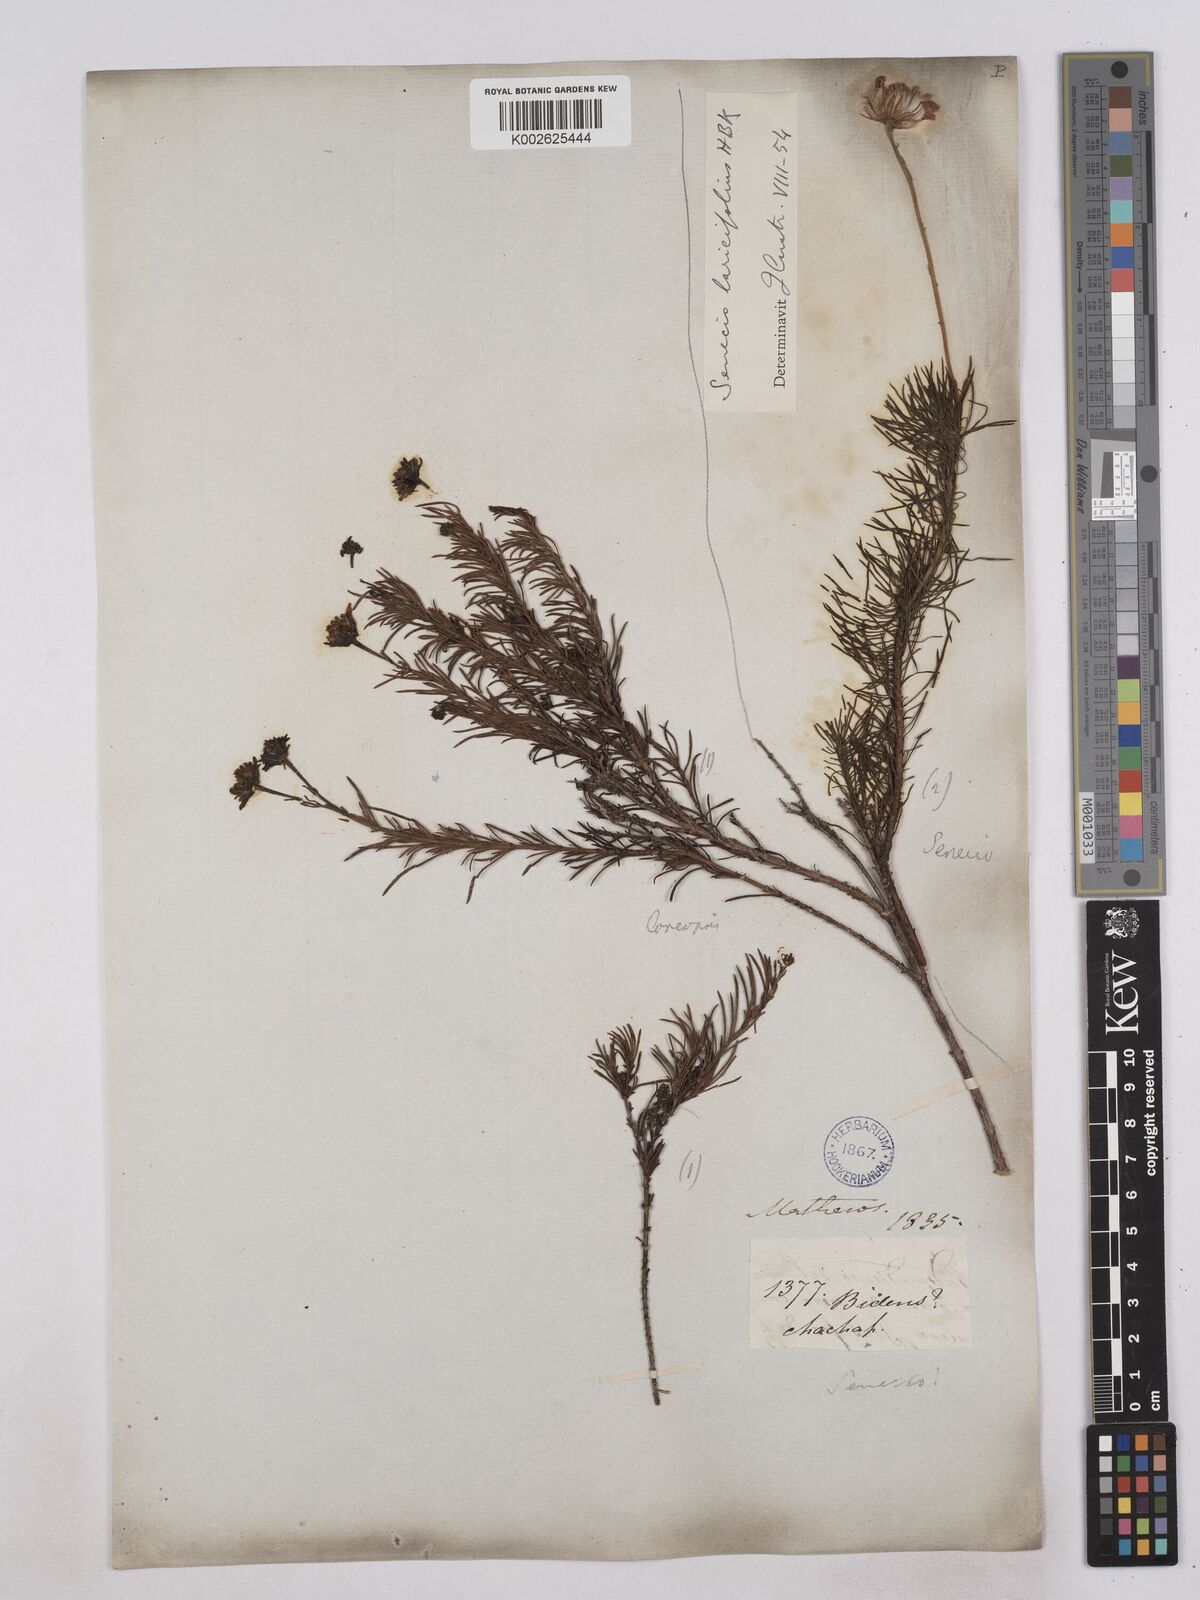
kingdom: Plantae
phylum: Tracheophyta
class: Magnoliopsida
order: Asterales
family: Asteraceae
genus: Senecio
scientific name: Senecio laricifolius
